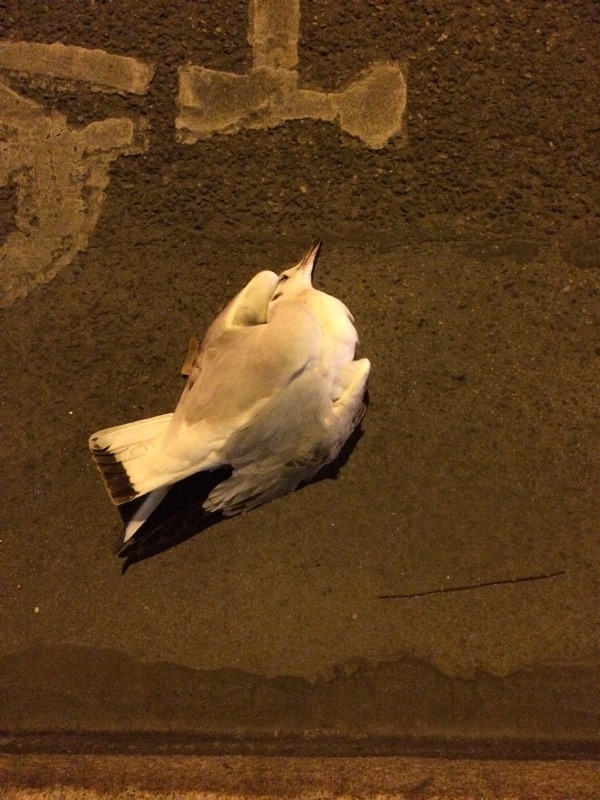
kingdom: Animalia
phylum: Chordata
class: Aves
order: Charadriiformes
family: Laridae
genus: Chroicocephalus
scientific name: Chroicocephalus ridibundus
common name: Black-headed gull
